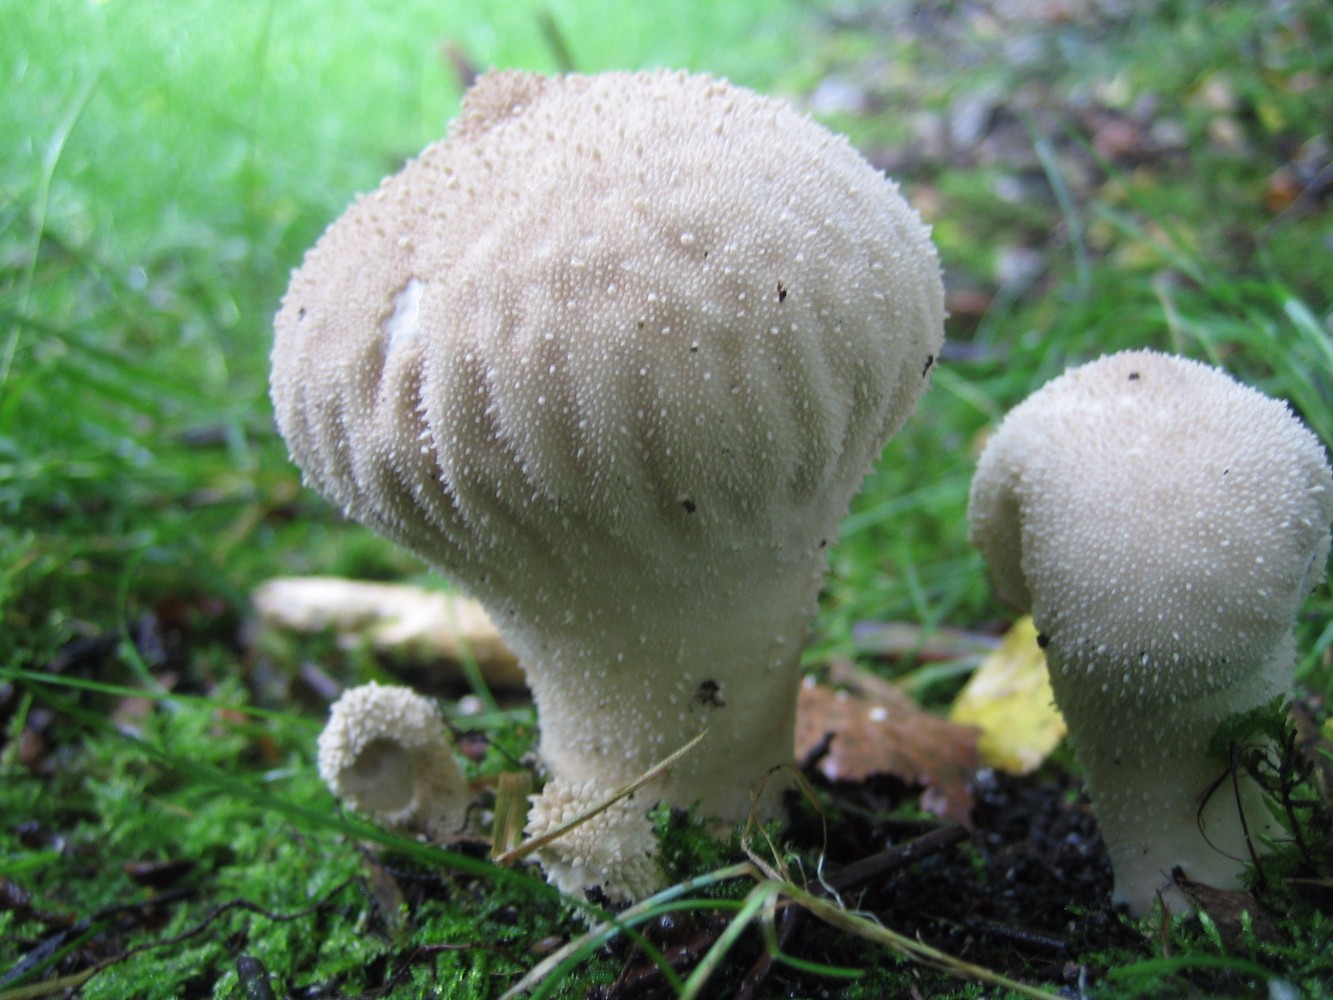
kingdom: Fungi
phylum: Basidiomycota
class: Agaricomycetes
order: Agaricales
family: Lycoperdaceae
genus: Lycoperdon
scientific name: Lycoperdon perlatum
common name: krystal-støvbold
